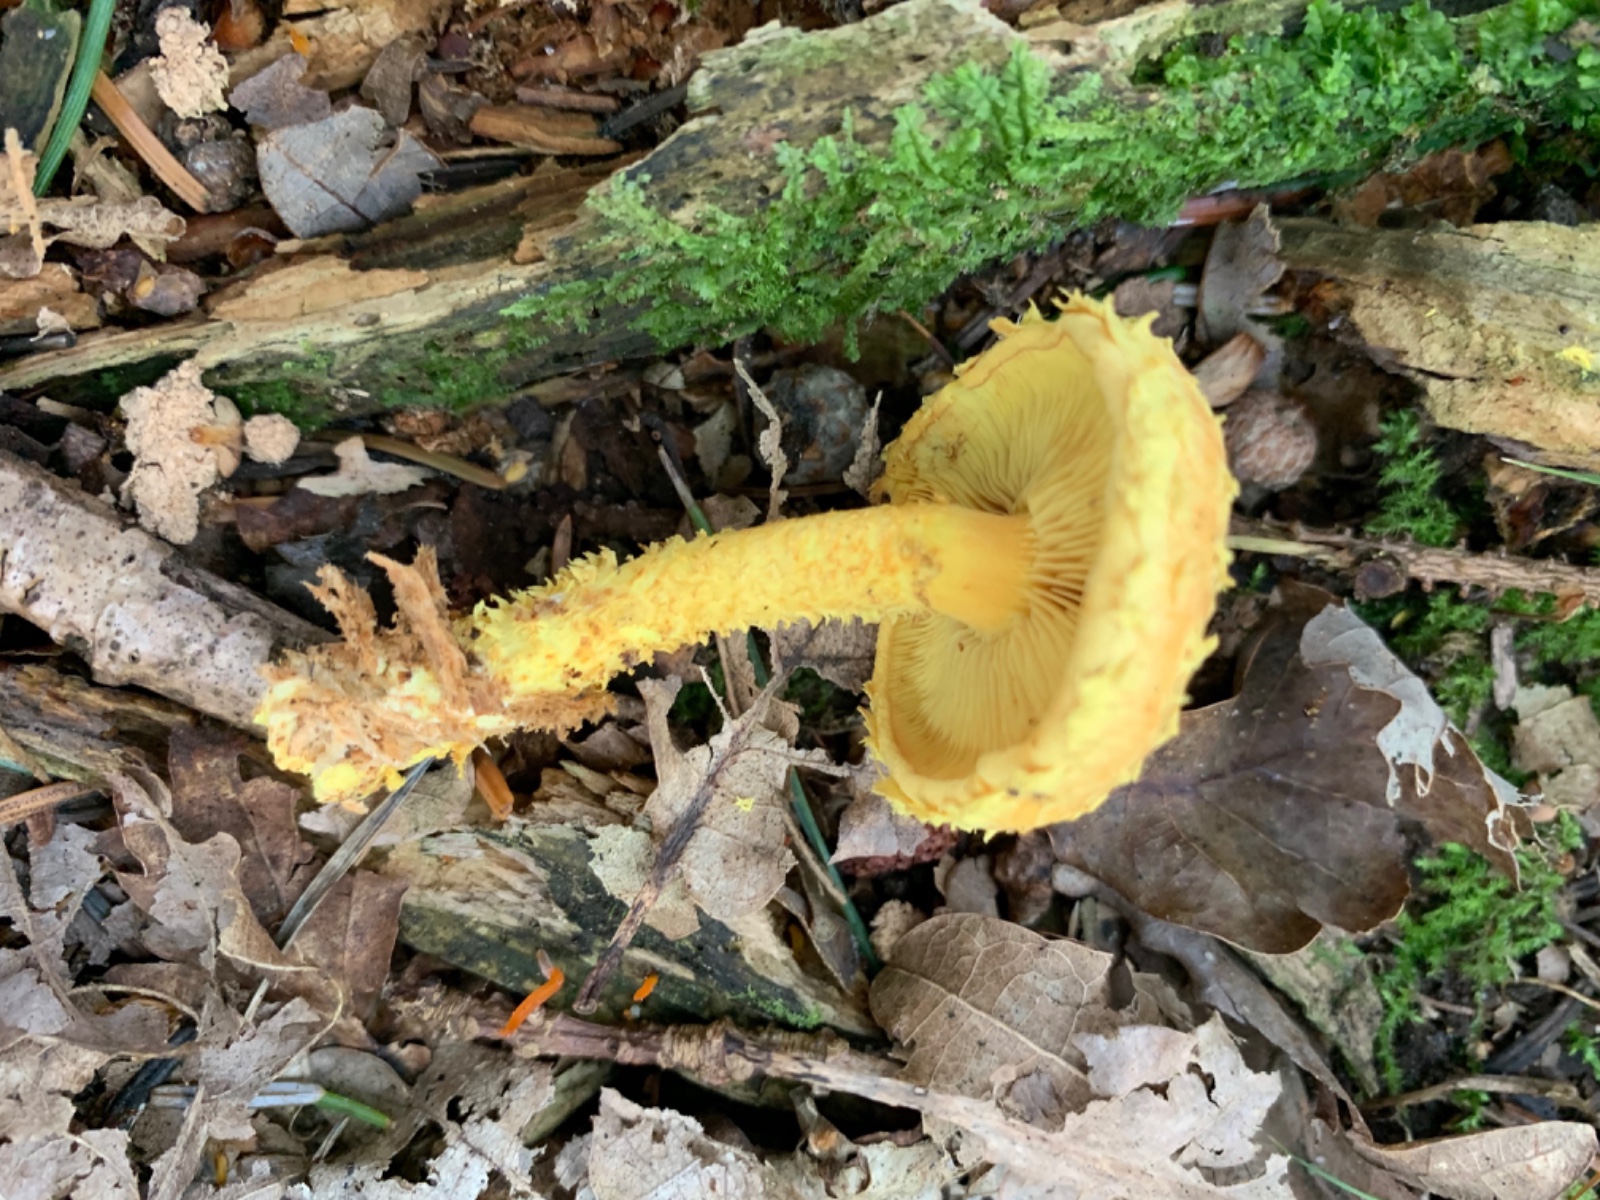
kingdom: Fungi
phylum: Basidiomycota
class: Agaricomycetes
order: Agaricales
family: Strophariaceae
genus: Pholiota
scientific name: Pholiota flammans
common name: flamme-skælhat
